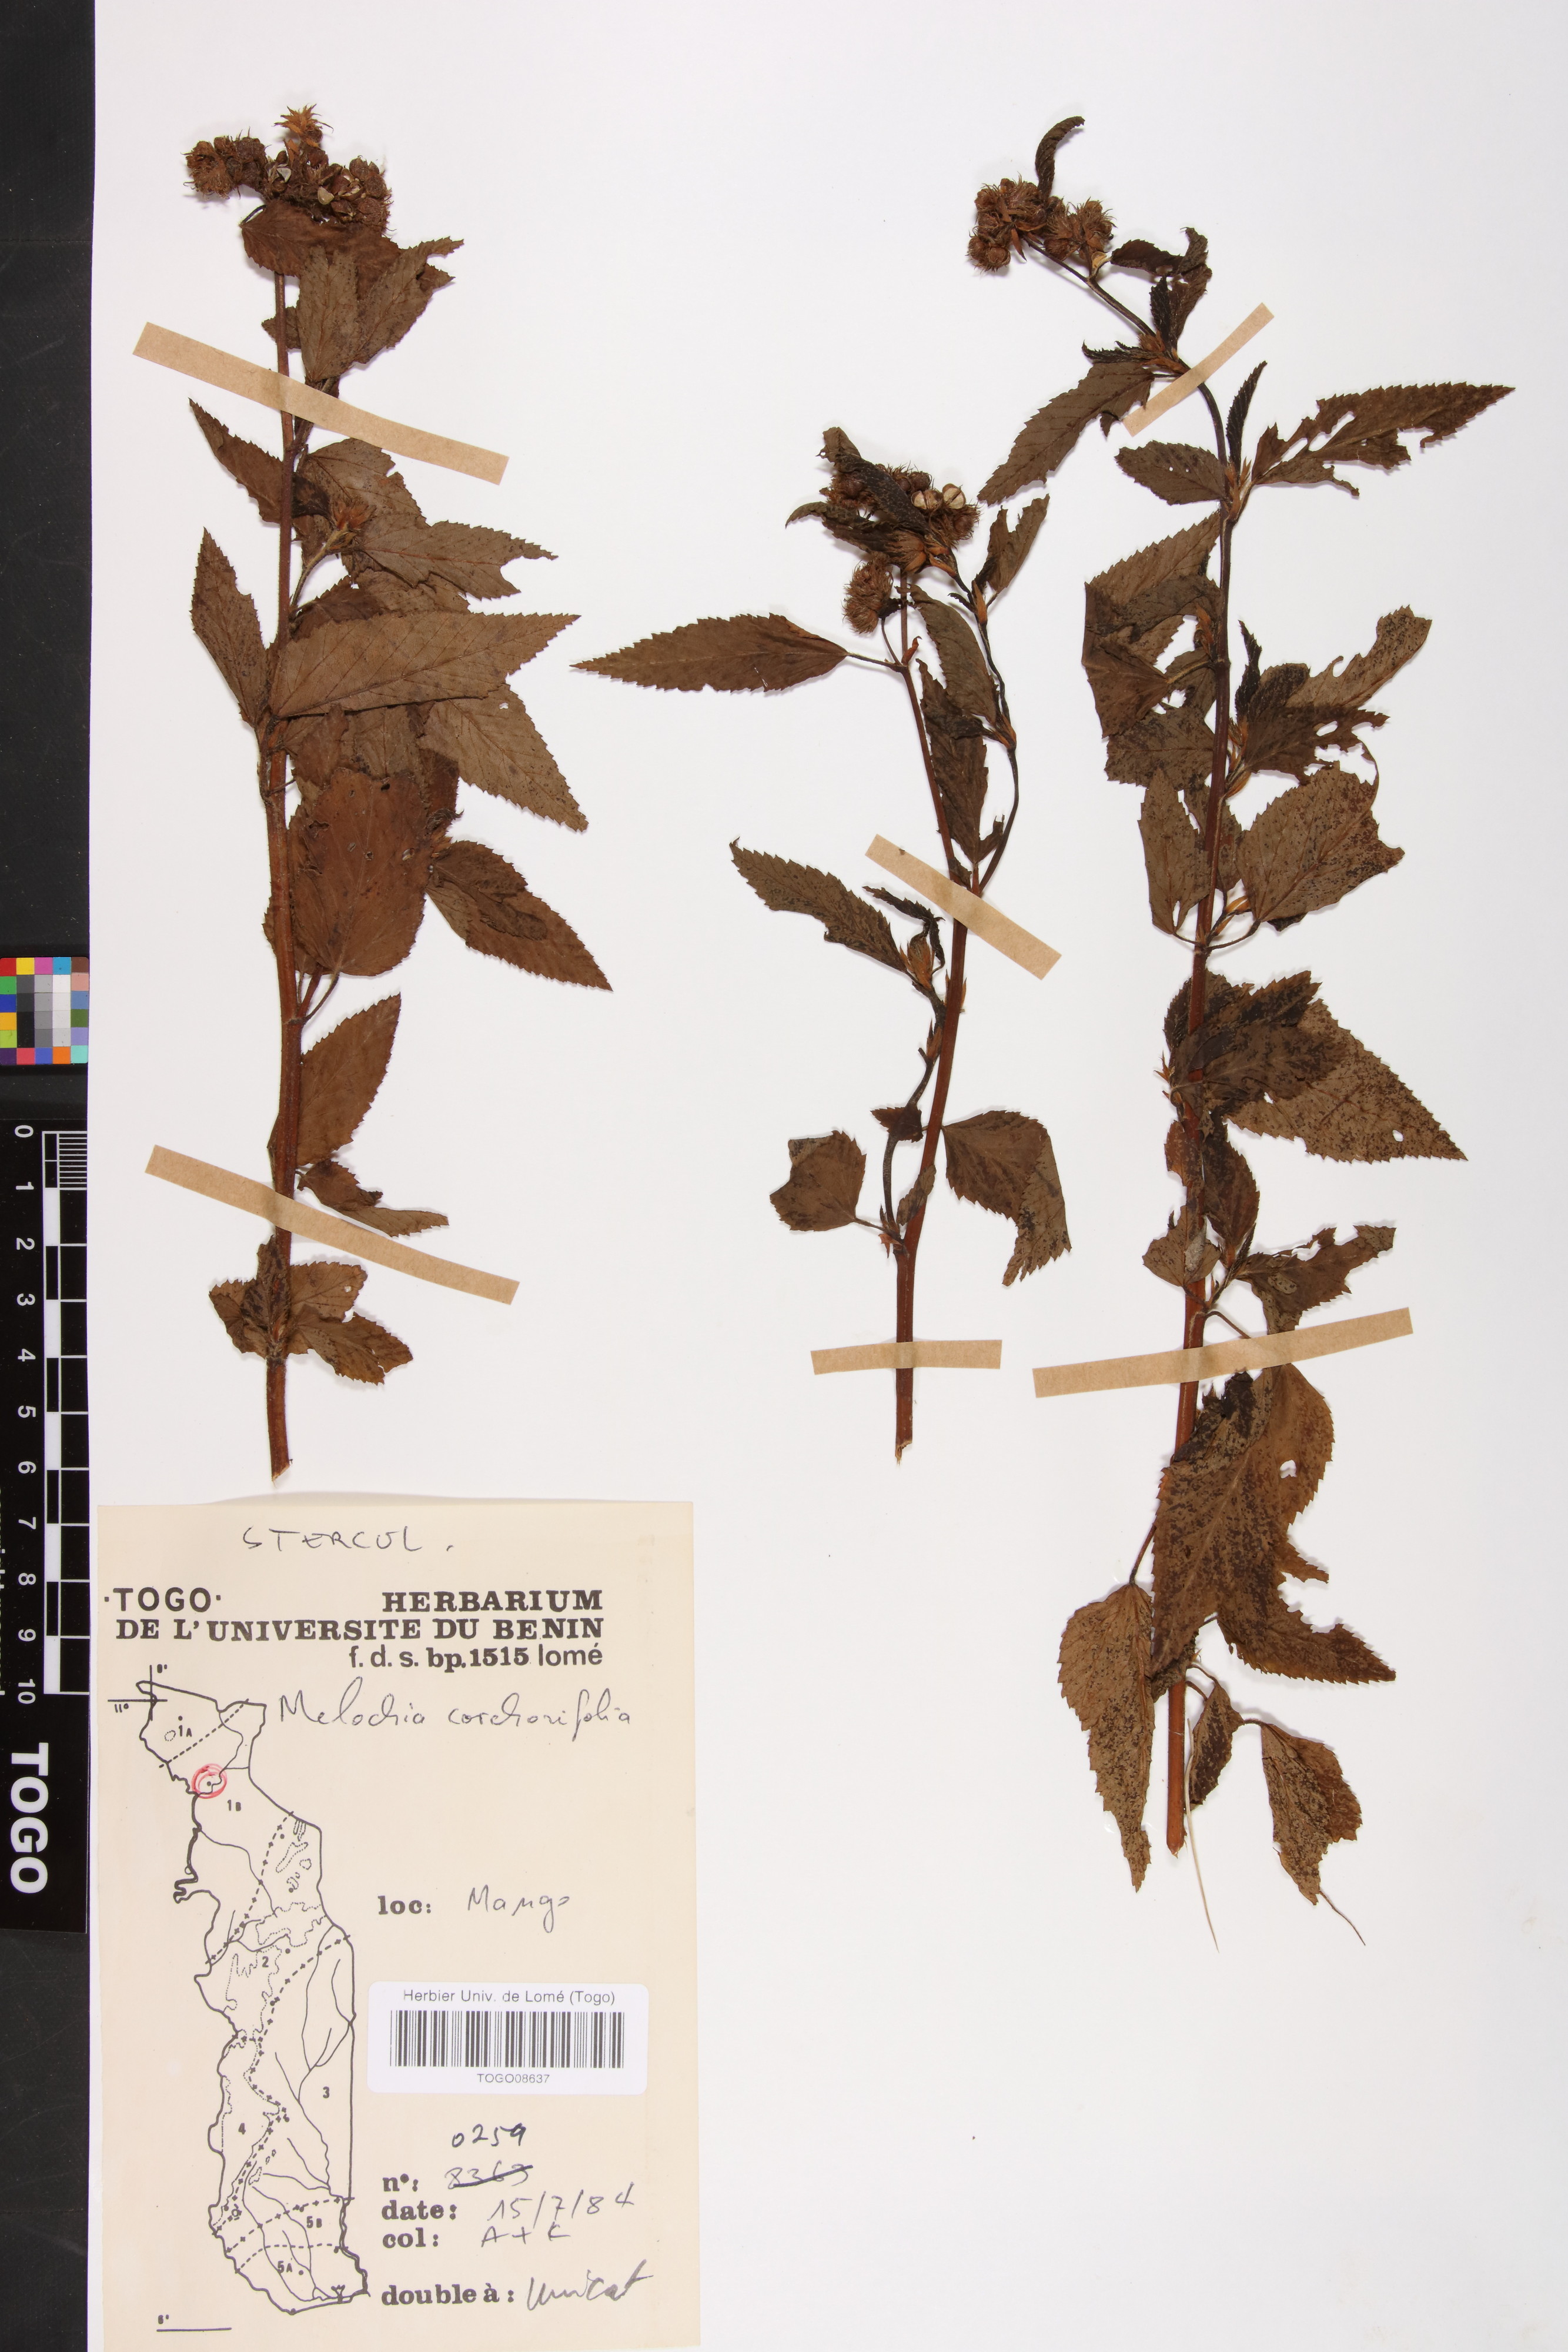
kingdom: Plantae
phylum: Tracheophyta
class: Magnoliopsida
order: Malvales
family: Malvaceae
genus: Melochia
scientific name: Melochia corchorifolia
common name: Chocolateweed
